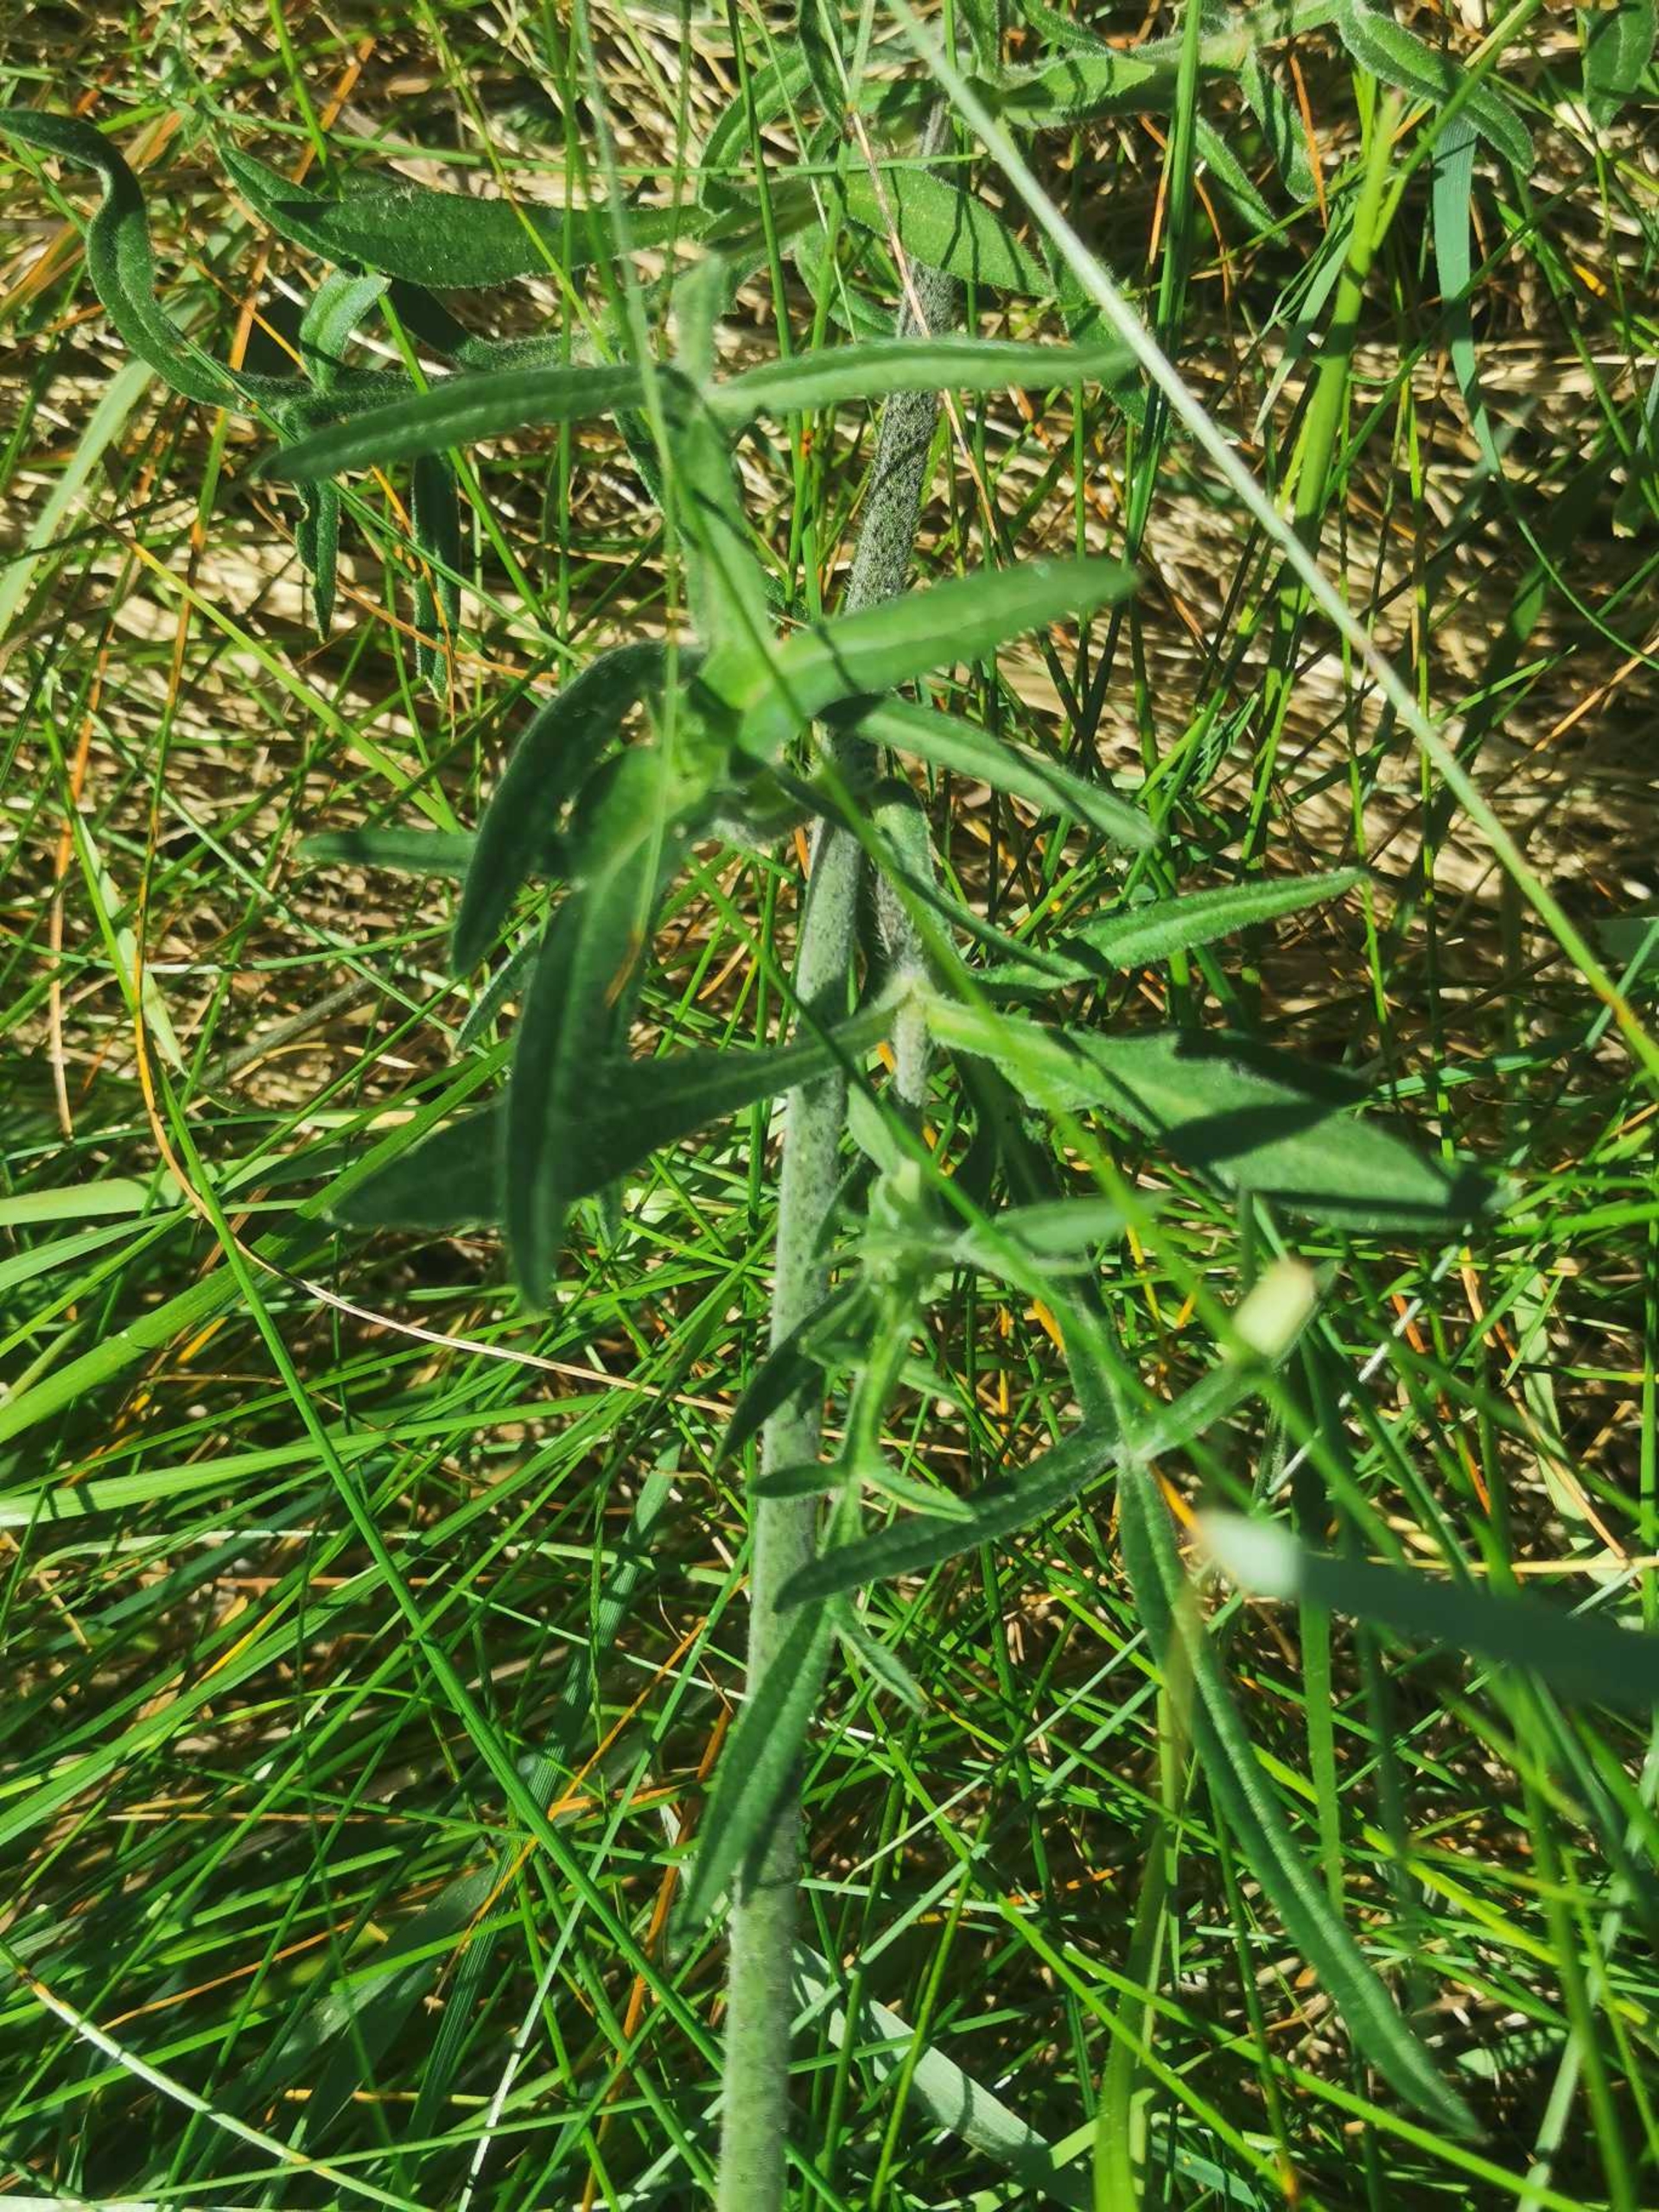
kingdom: Plantae
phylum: Tracheophyta
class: Magnoliopsida
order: Dipsacales
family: Caprifoliaceae
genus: Knautia
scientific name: Knautia arvensis
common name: Blåhat
